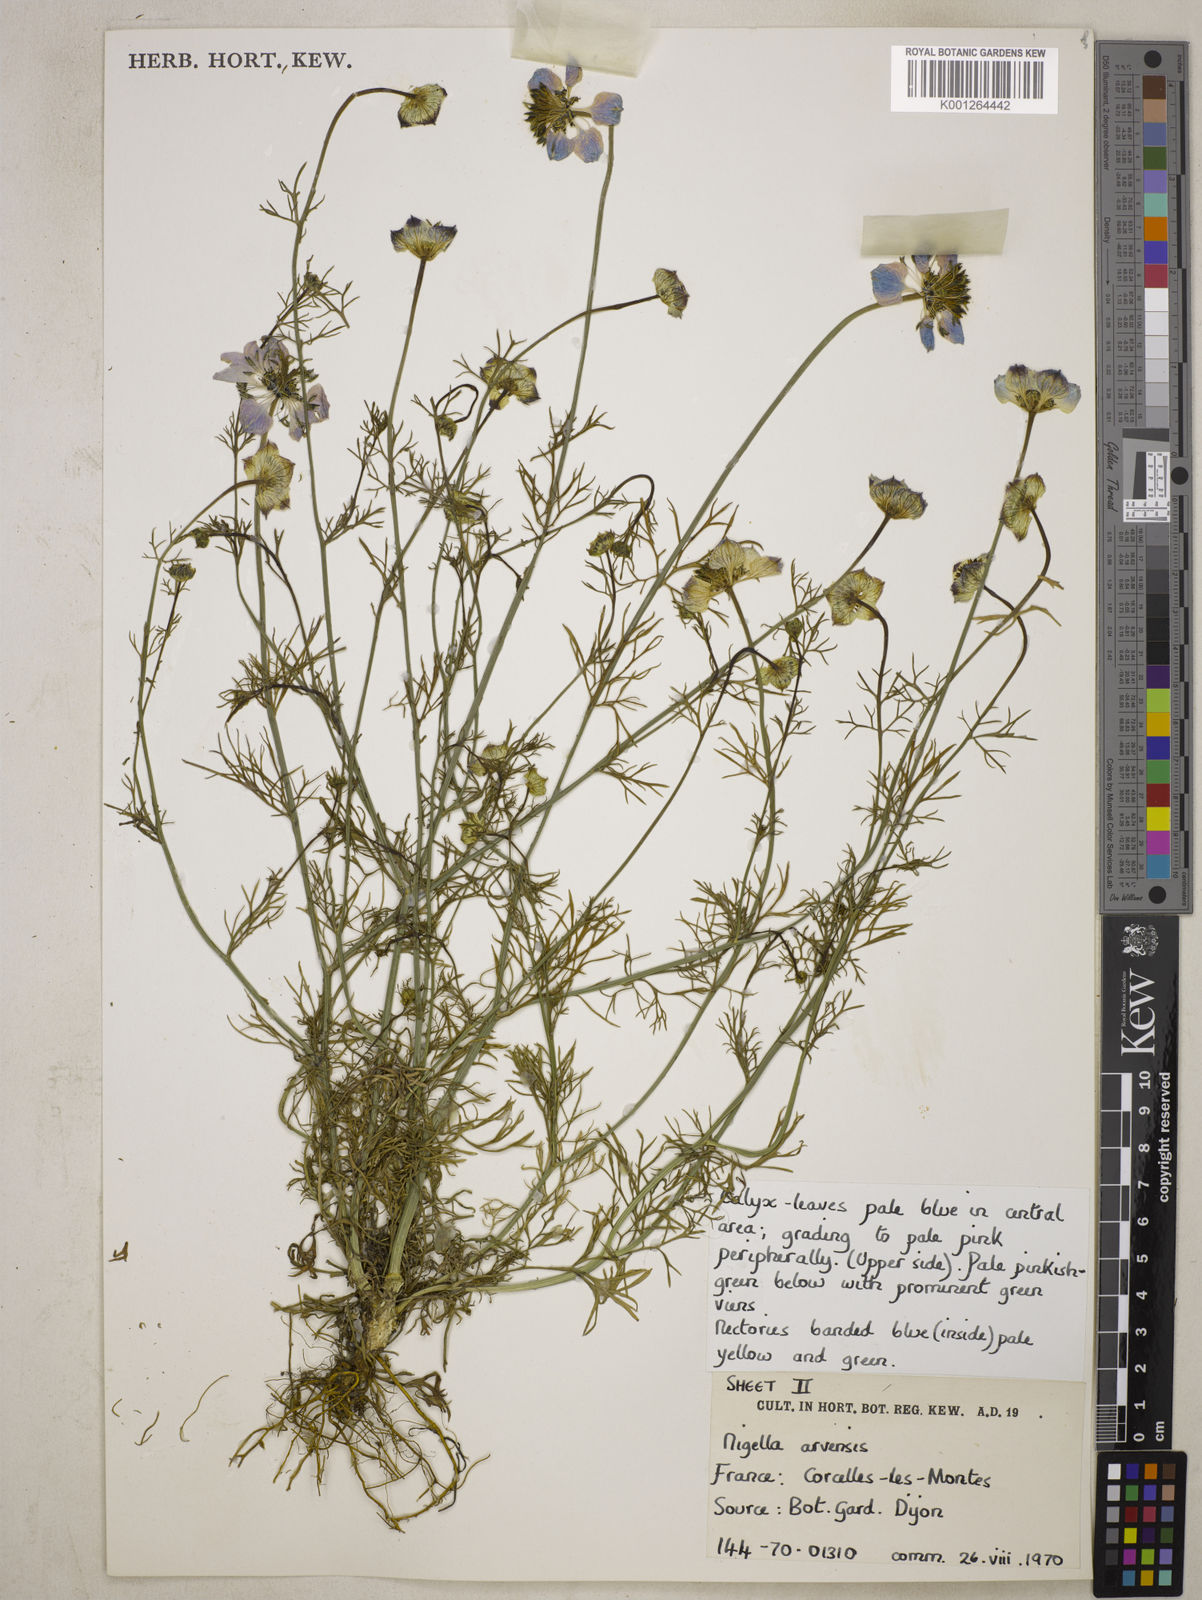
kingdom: Plantae
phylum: Tracheophyta
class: Magnoliopsida
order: Ranunculales
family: Ranunculaceae
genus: Nigella
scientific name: Nigella arvensis
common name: Wild fennel-flower
